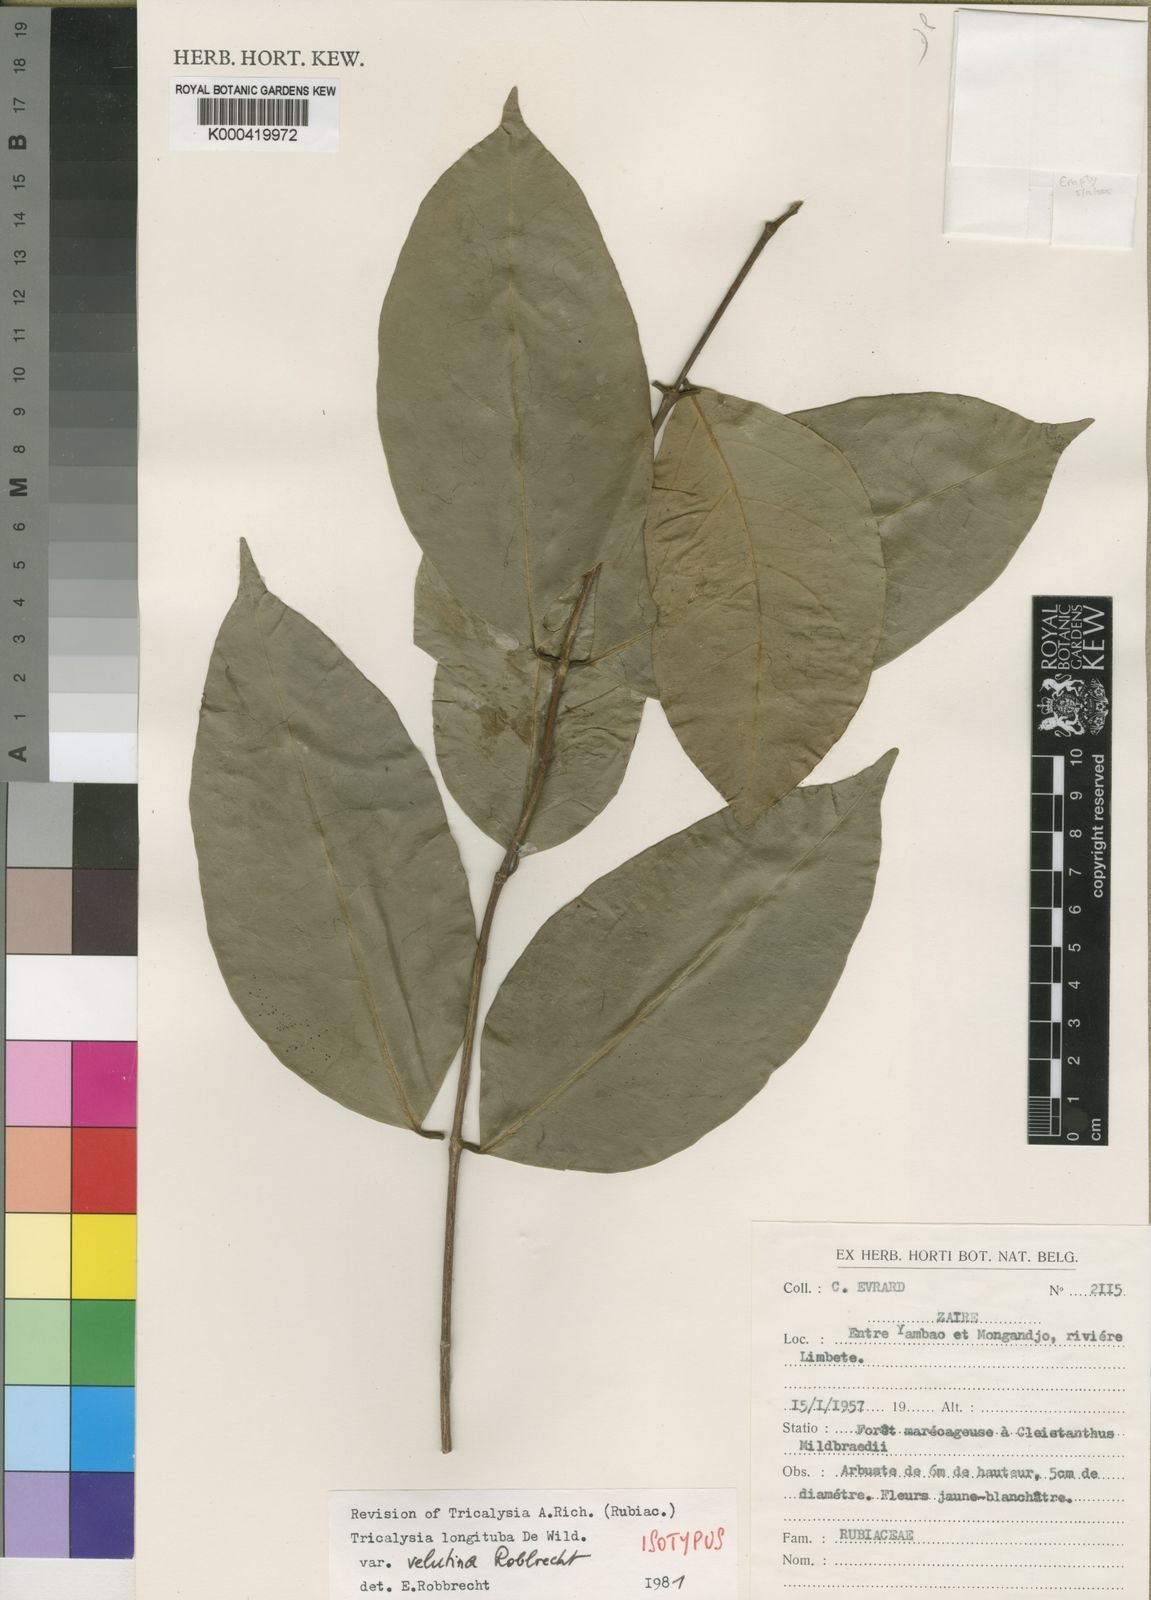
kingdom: Plantae
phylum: Tracheophyta
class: Magnoliopsida
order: Gentianales
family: Rubiaceae
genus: Tricalysia
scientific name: Tricalysia longituba
